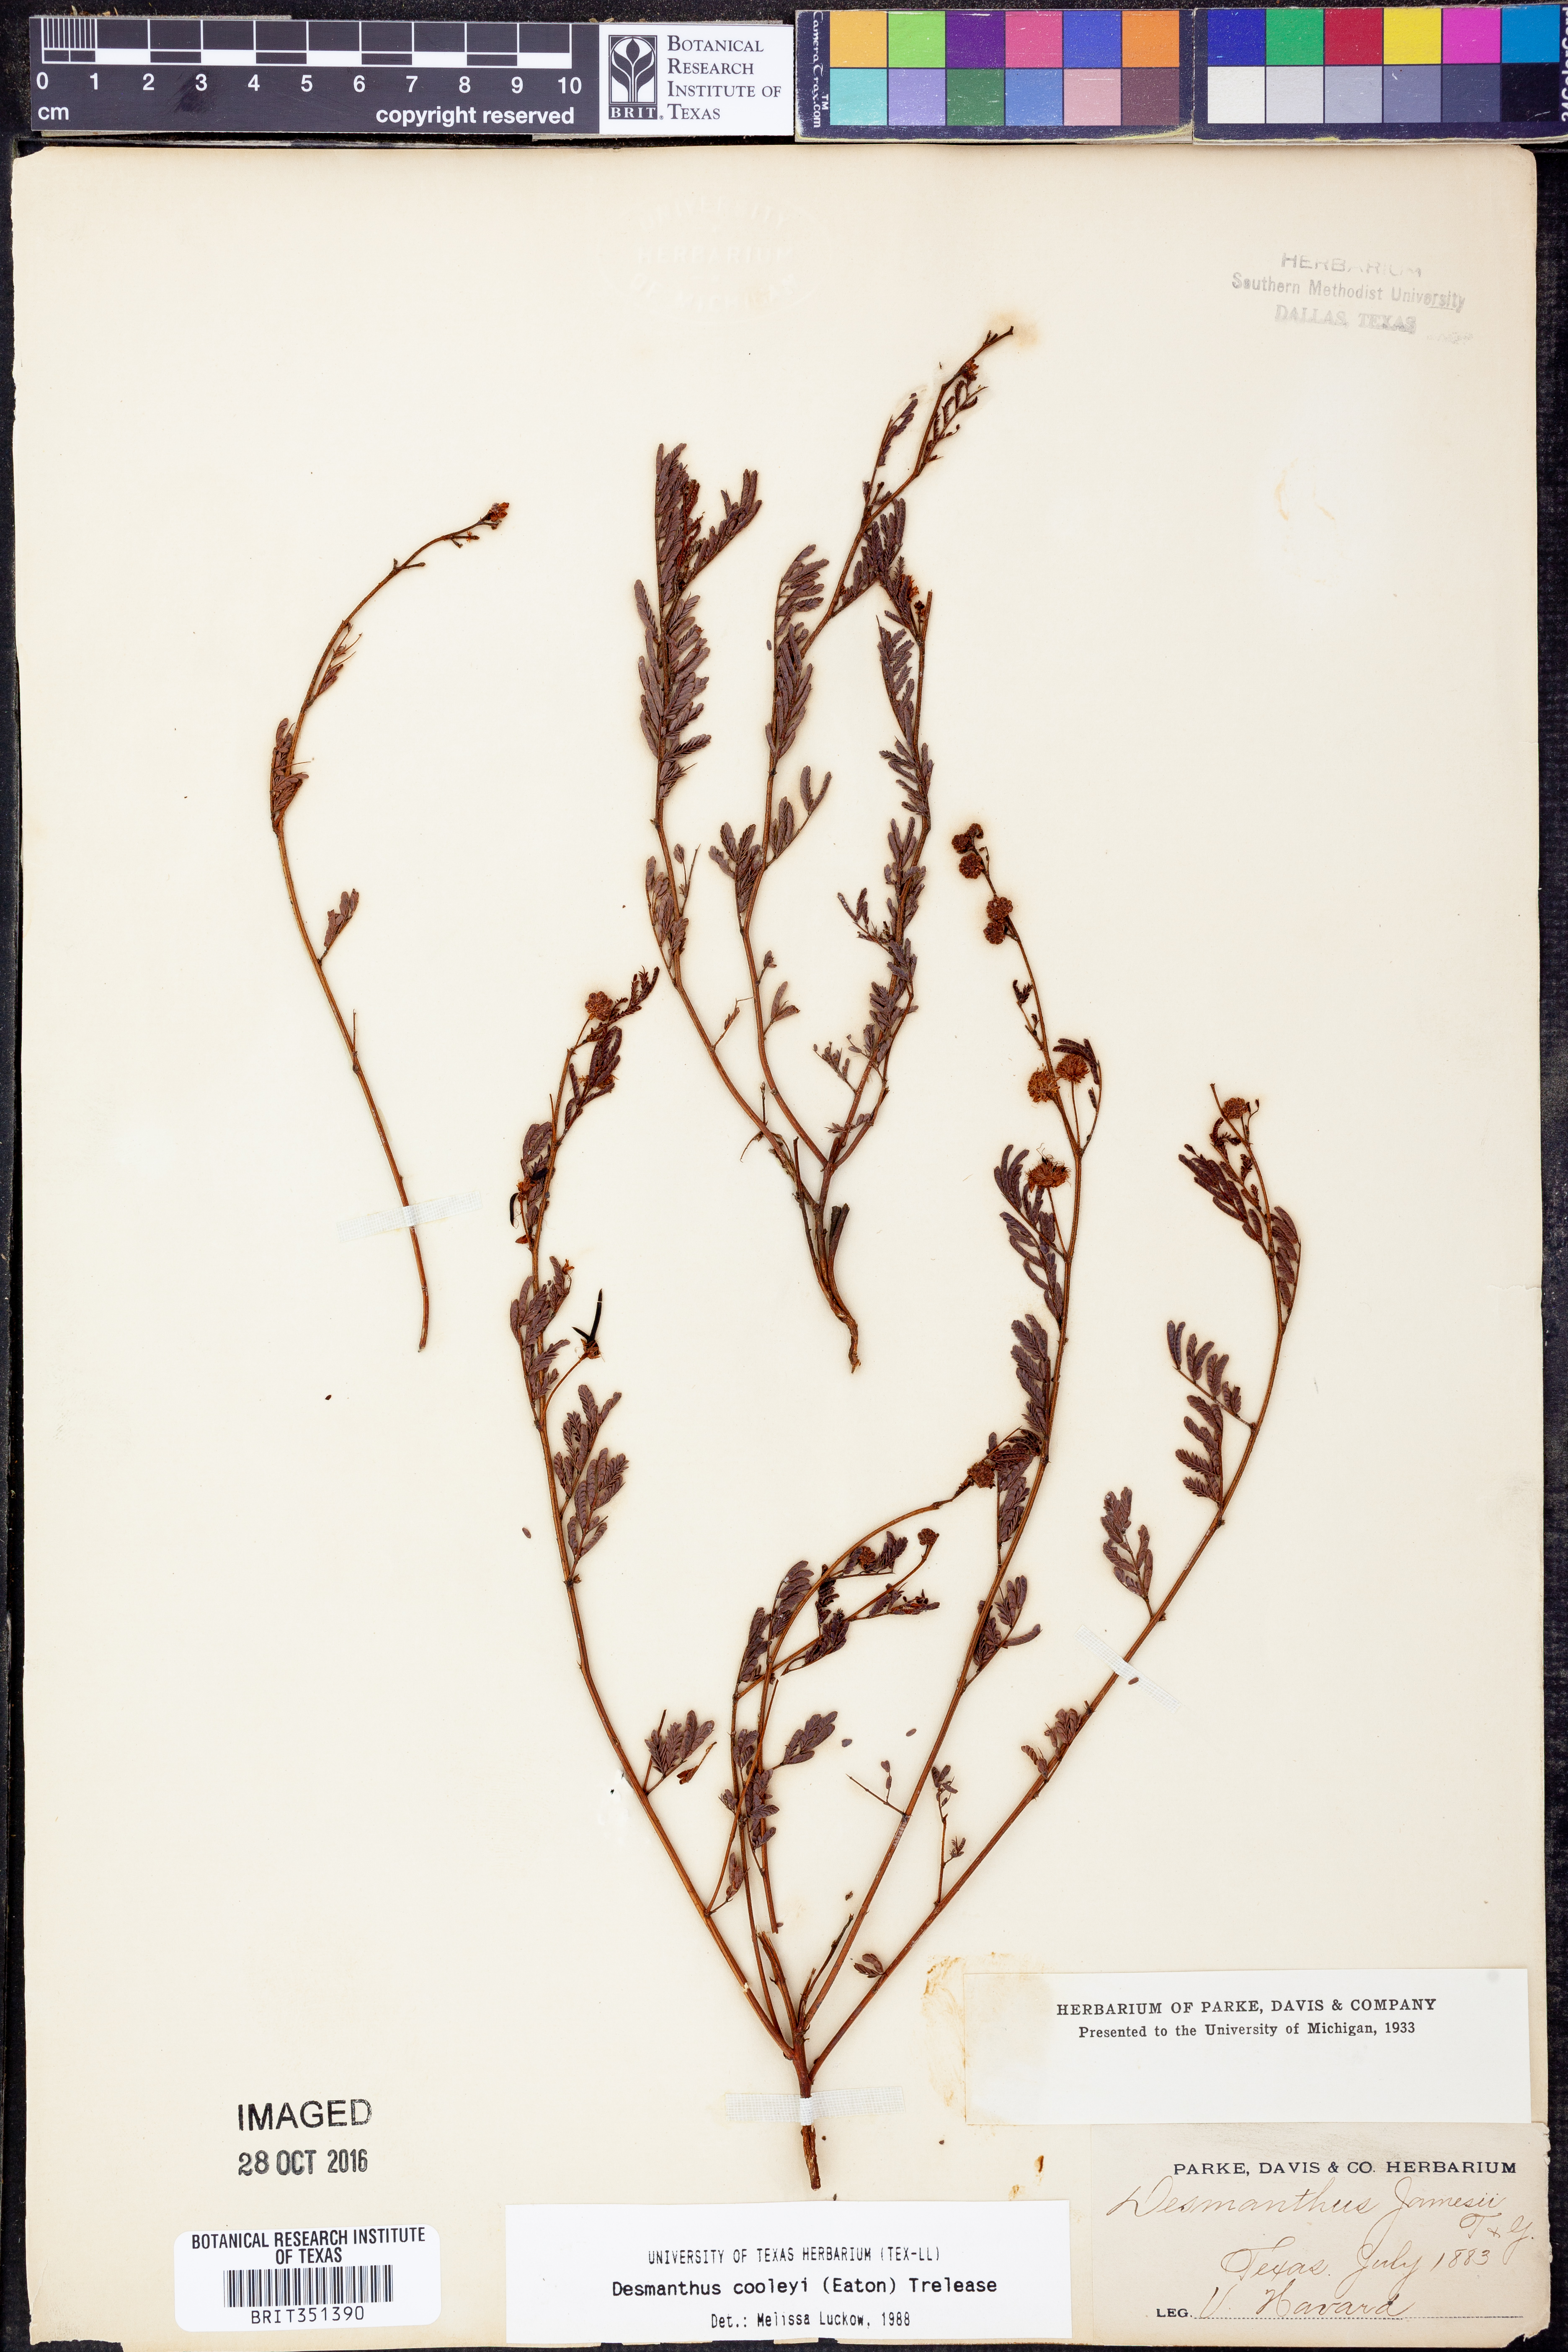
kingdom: Plantae
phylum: Tracheophyta
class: Magnoliopsida
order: Fabales
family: Fabaceae
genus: Desmanthus
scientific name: Desmanthus cooleyi
